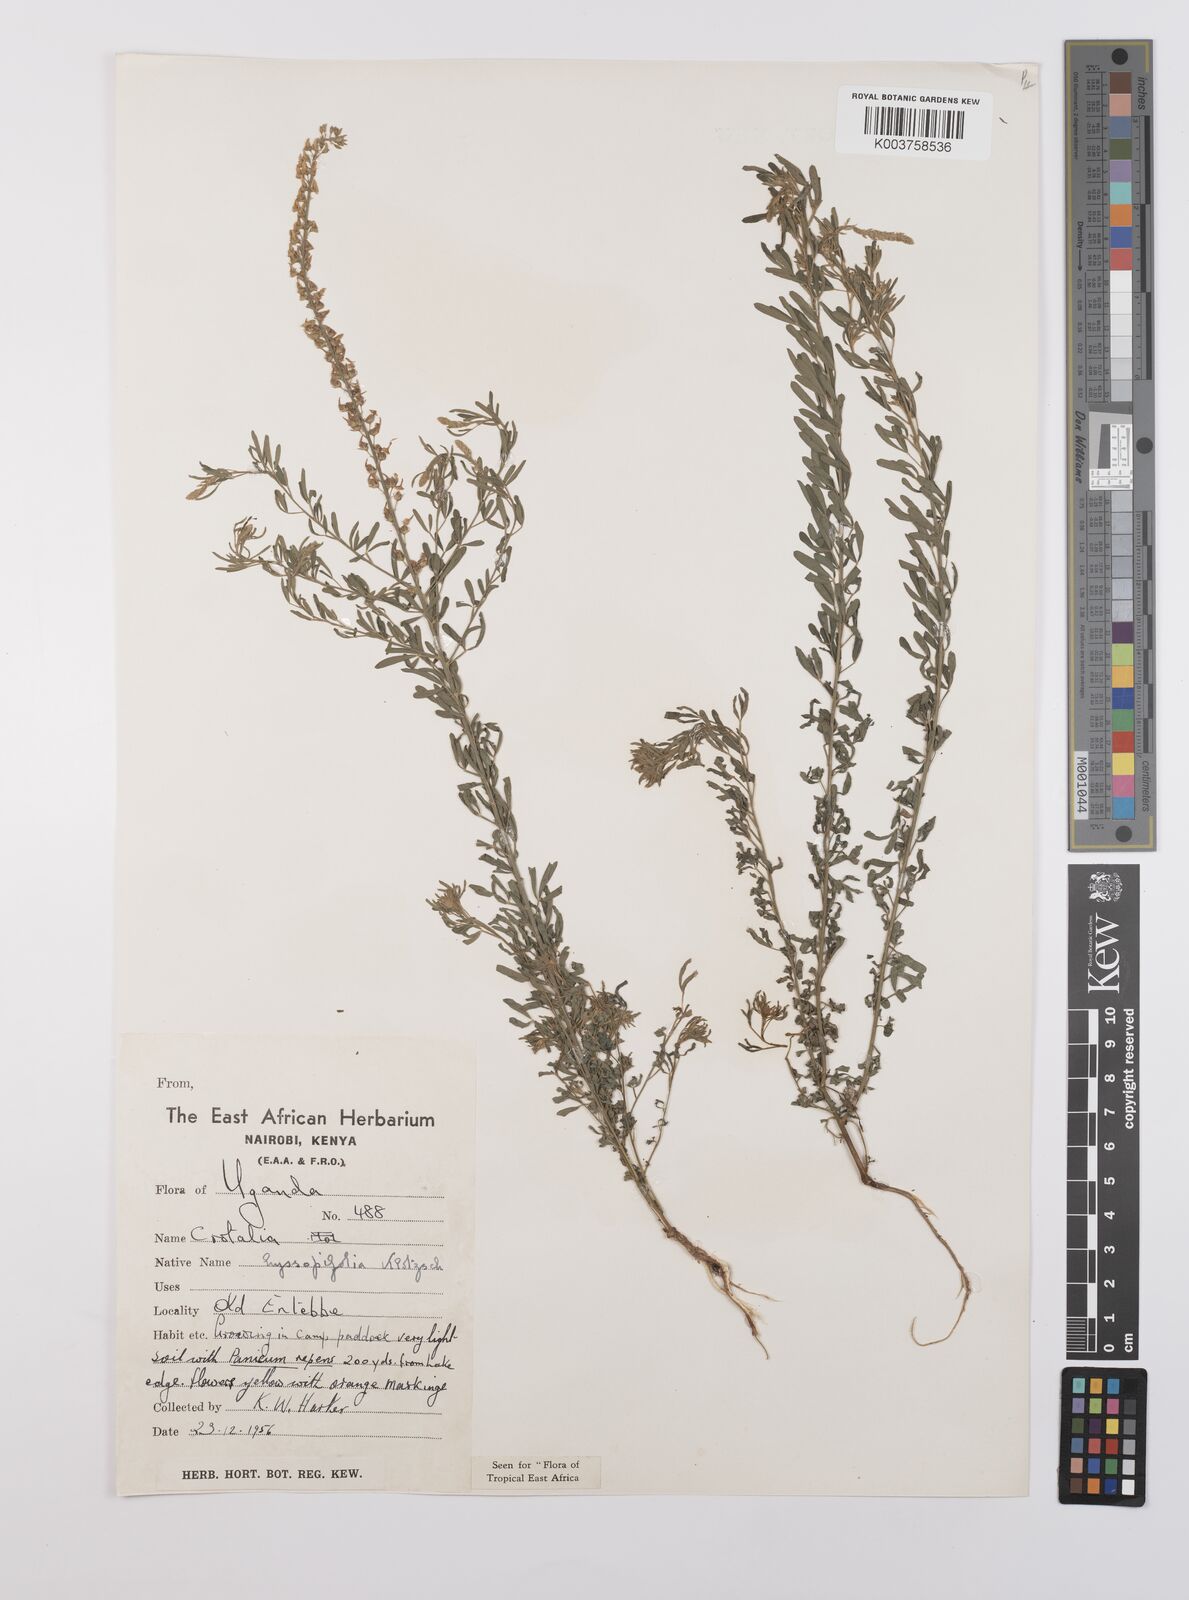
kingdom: Plantae
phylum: Tracheophyta
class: Magnoliopsida
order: Fabales
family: Fabaceae
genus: Crotalaria
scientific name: Crotalaria hyssopifolia
